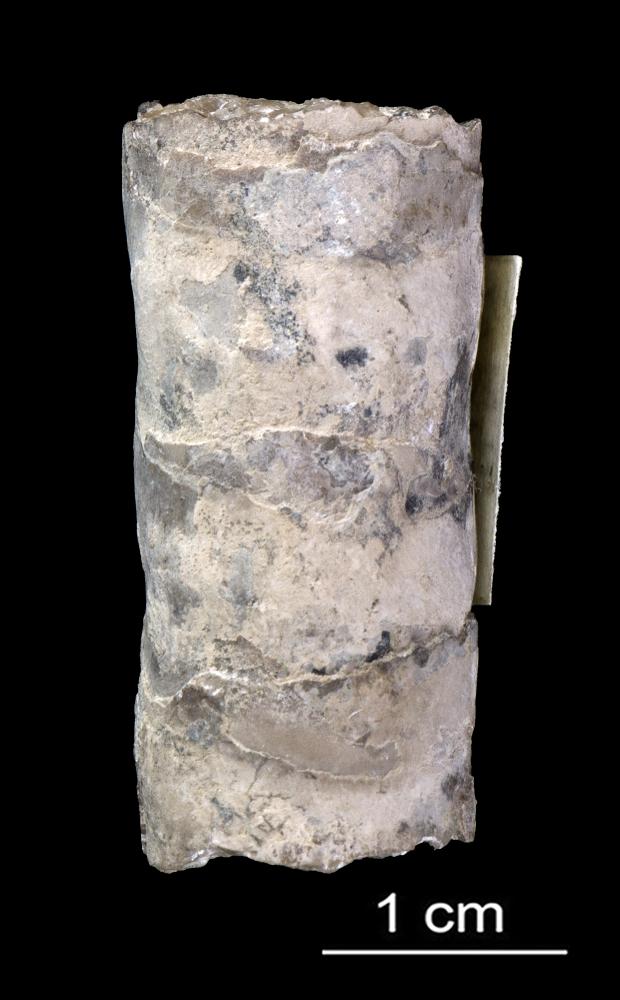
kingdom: Animalia
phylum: Mollusca
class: Cephalopoda
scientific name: Cephalopoda
